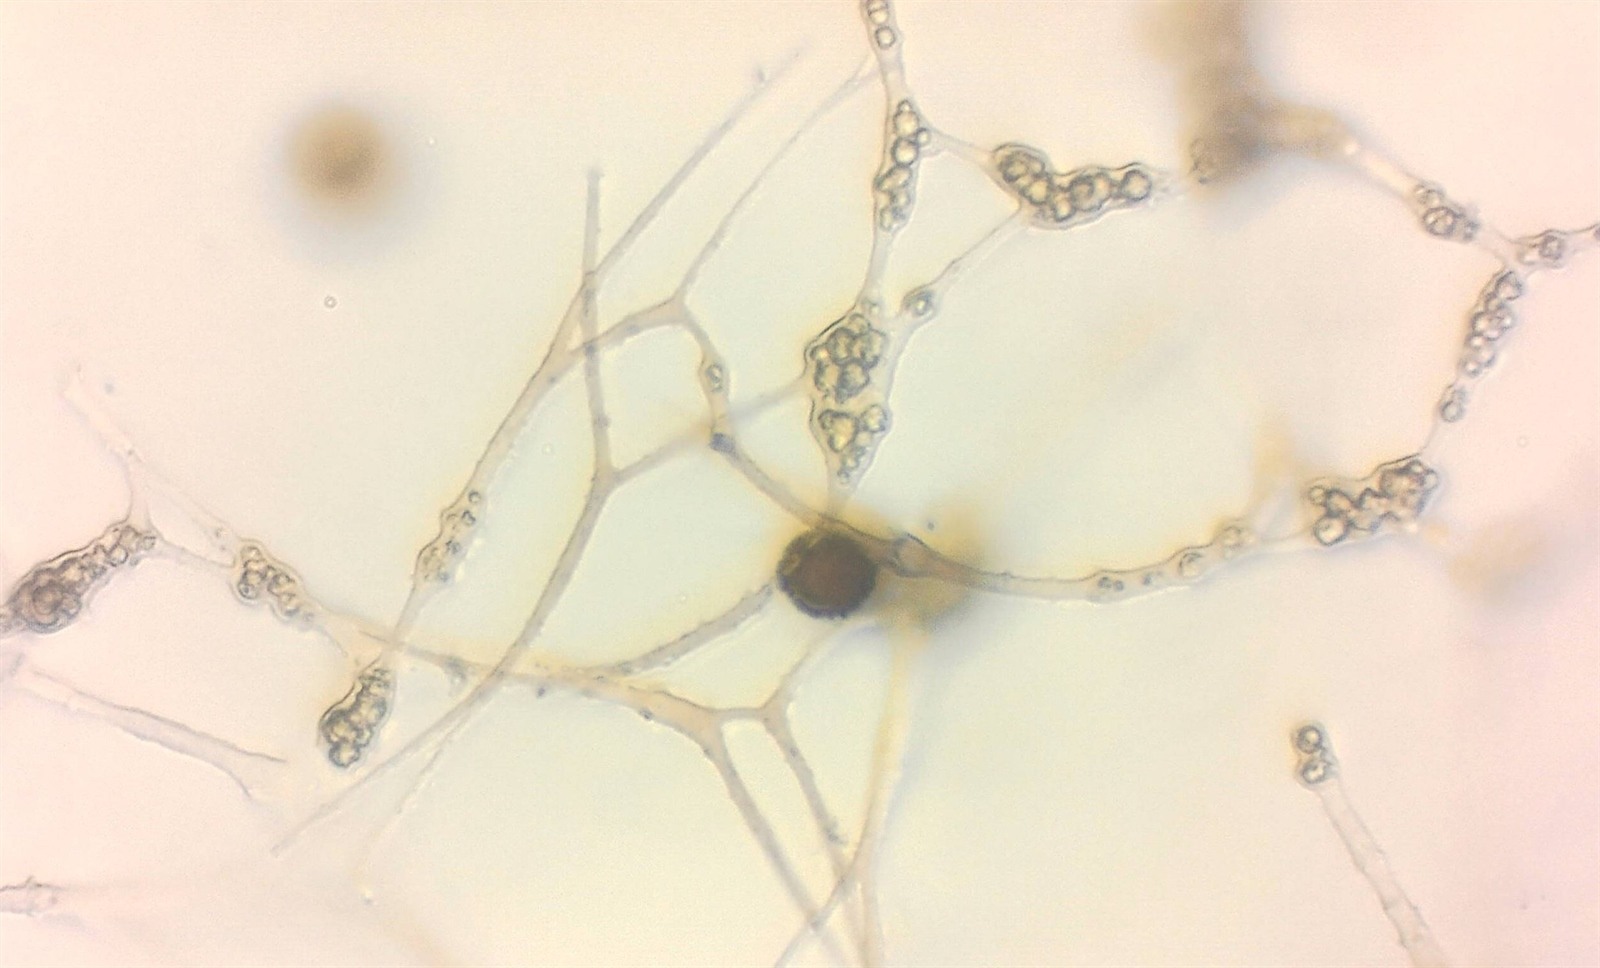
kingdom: Protozoa
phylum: Mycetozoa
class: Myxomycetes
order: Physarales
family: Didymiaceae
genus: Didymium
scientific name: Didymium annulisporum
